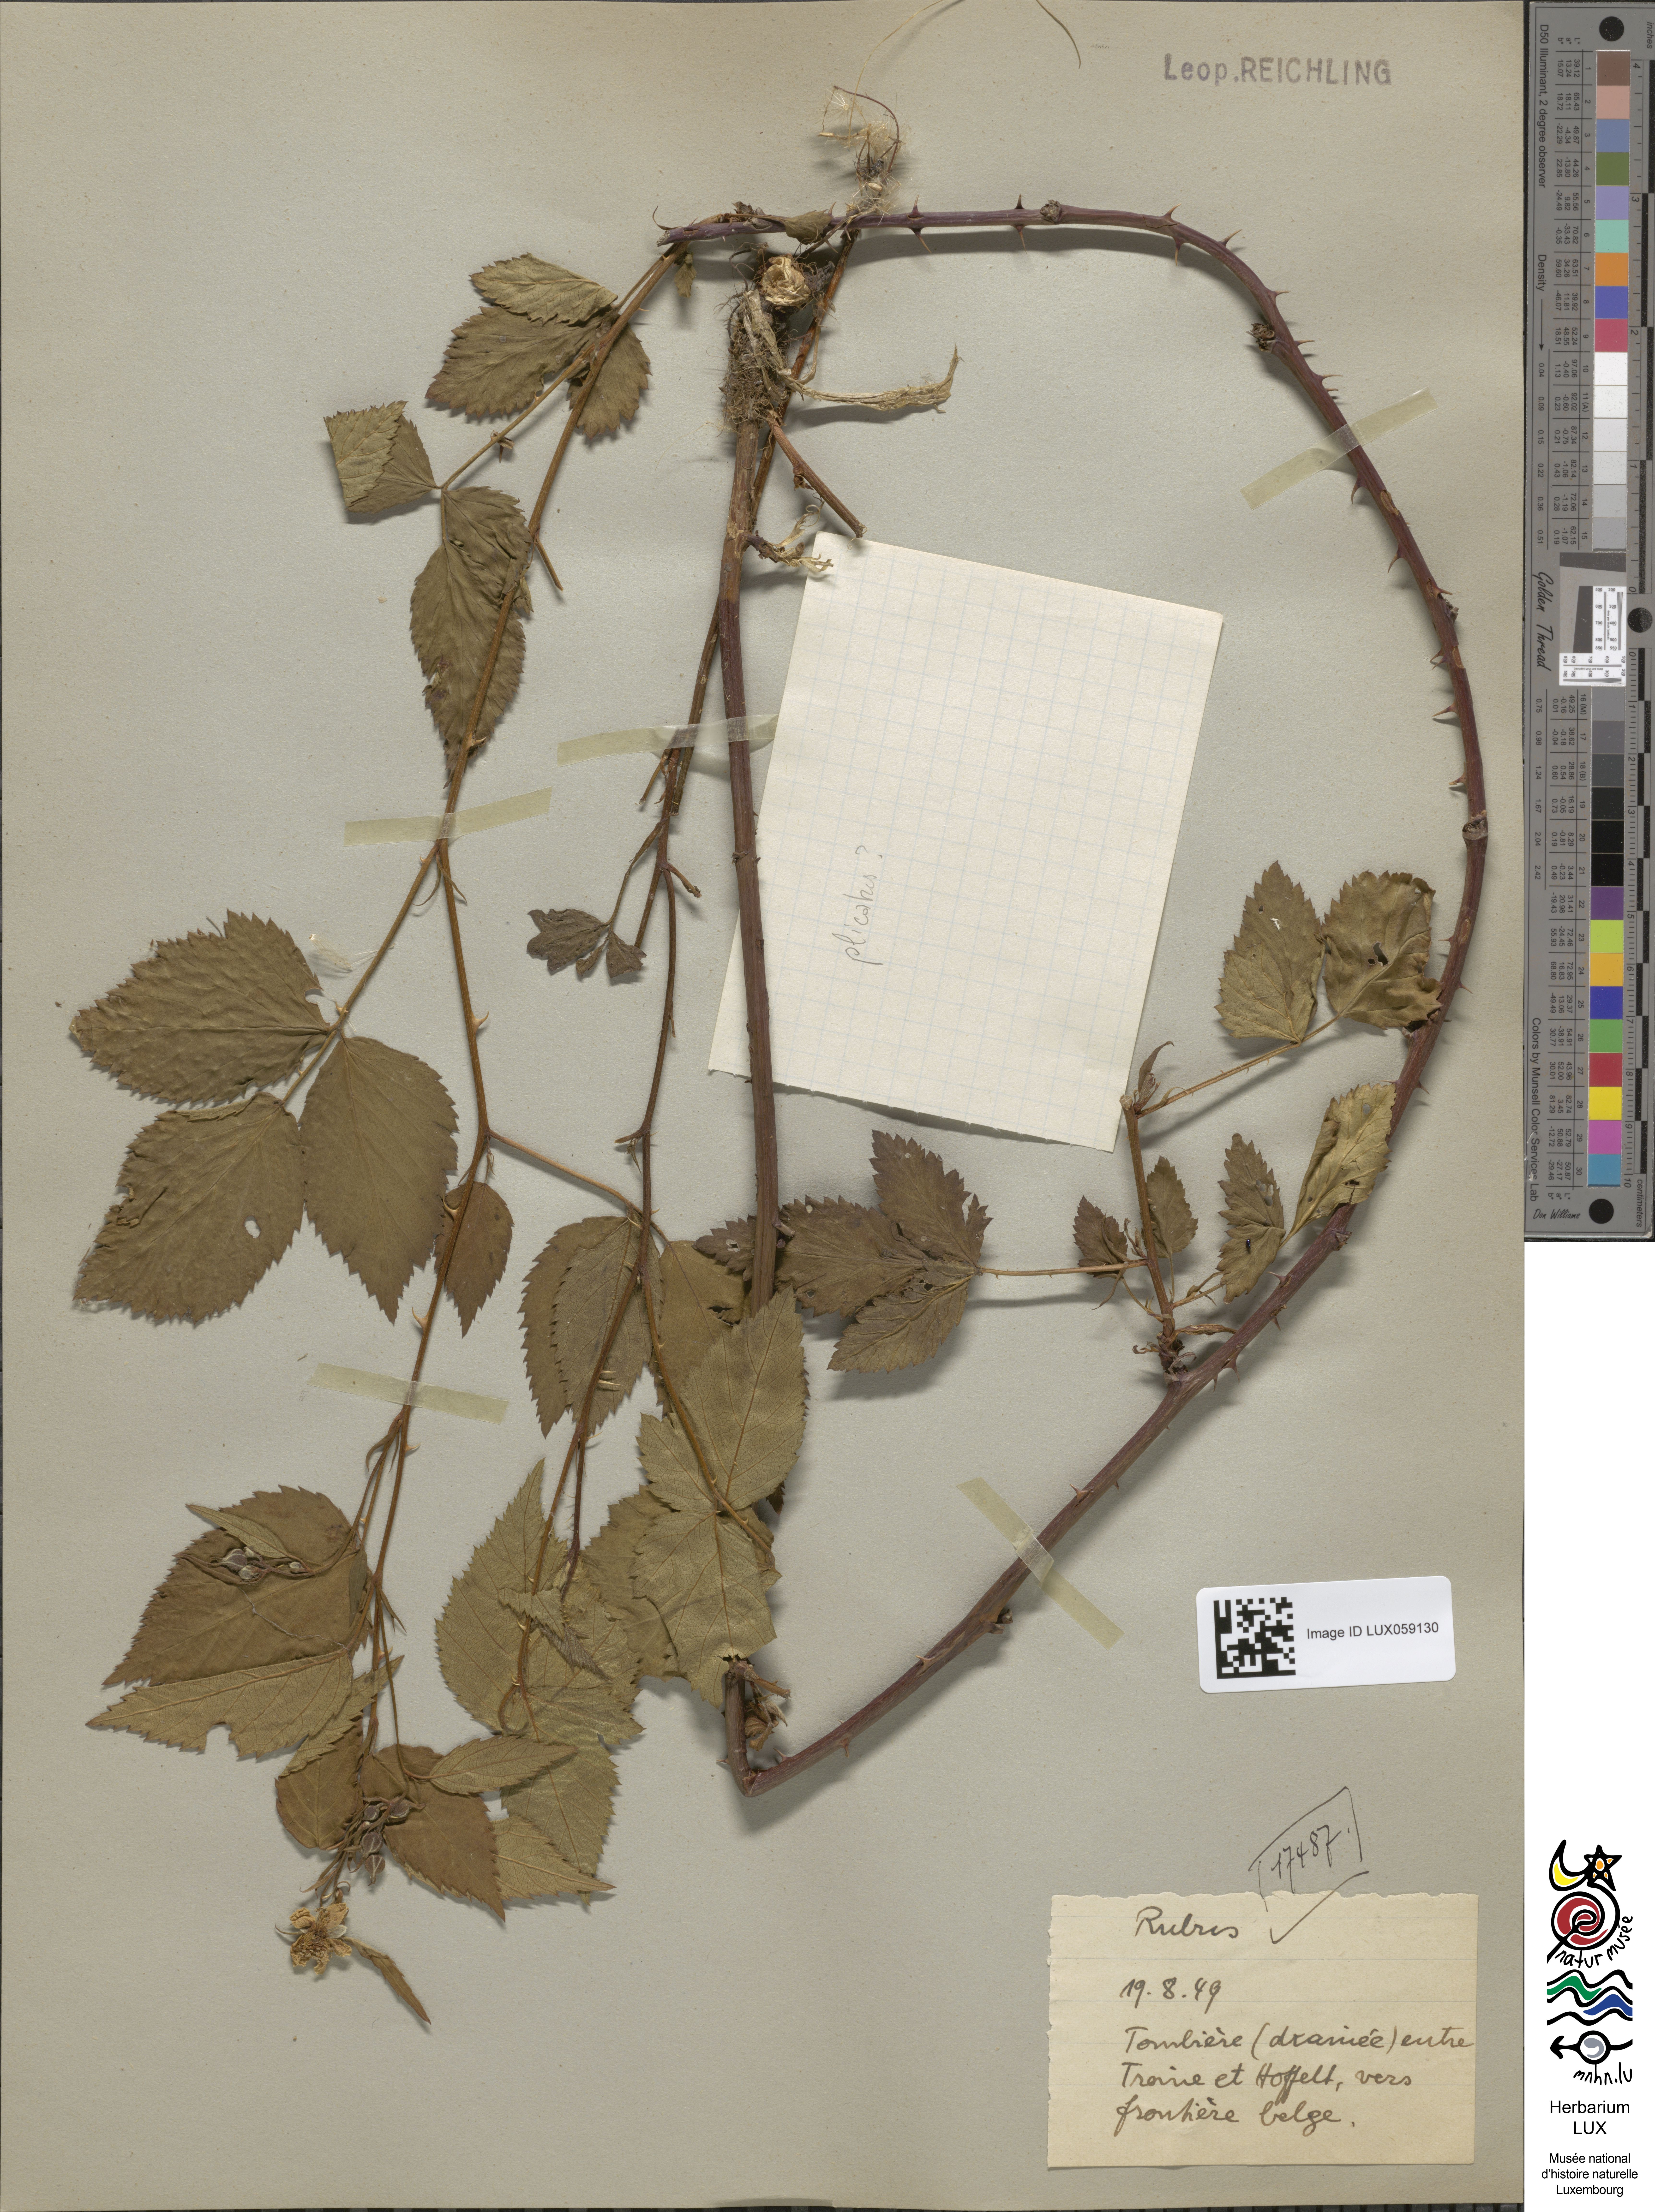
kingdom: Plantae
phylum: Tracheophyta
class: Magnoliopsida
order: Rosales
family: Rosaceae
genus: Rubus
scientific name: Rubus
